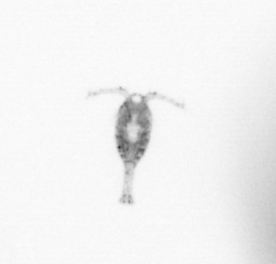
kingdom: Animalia
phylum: Arthropoda
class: Copepoda
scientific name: Copepoda
